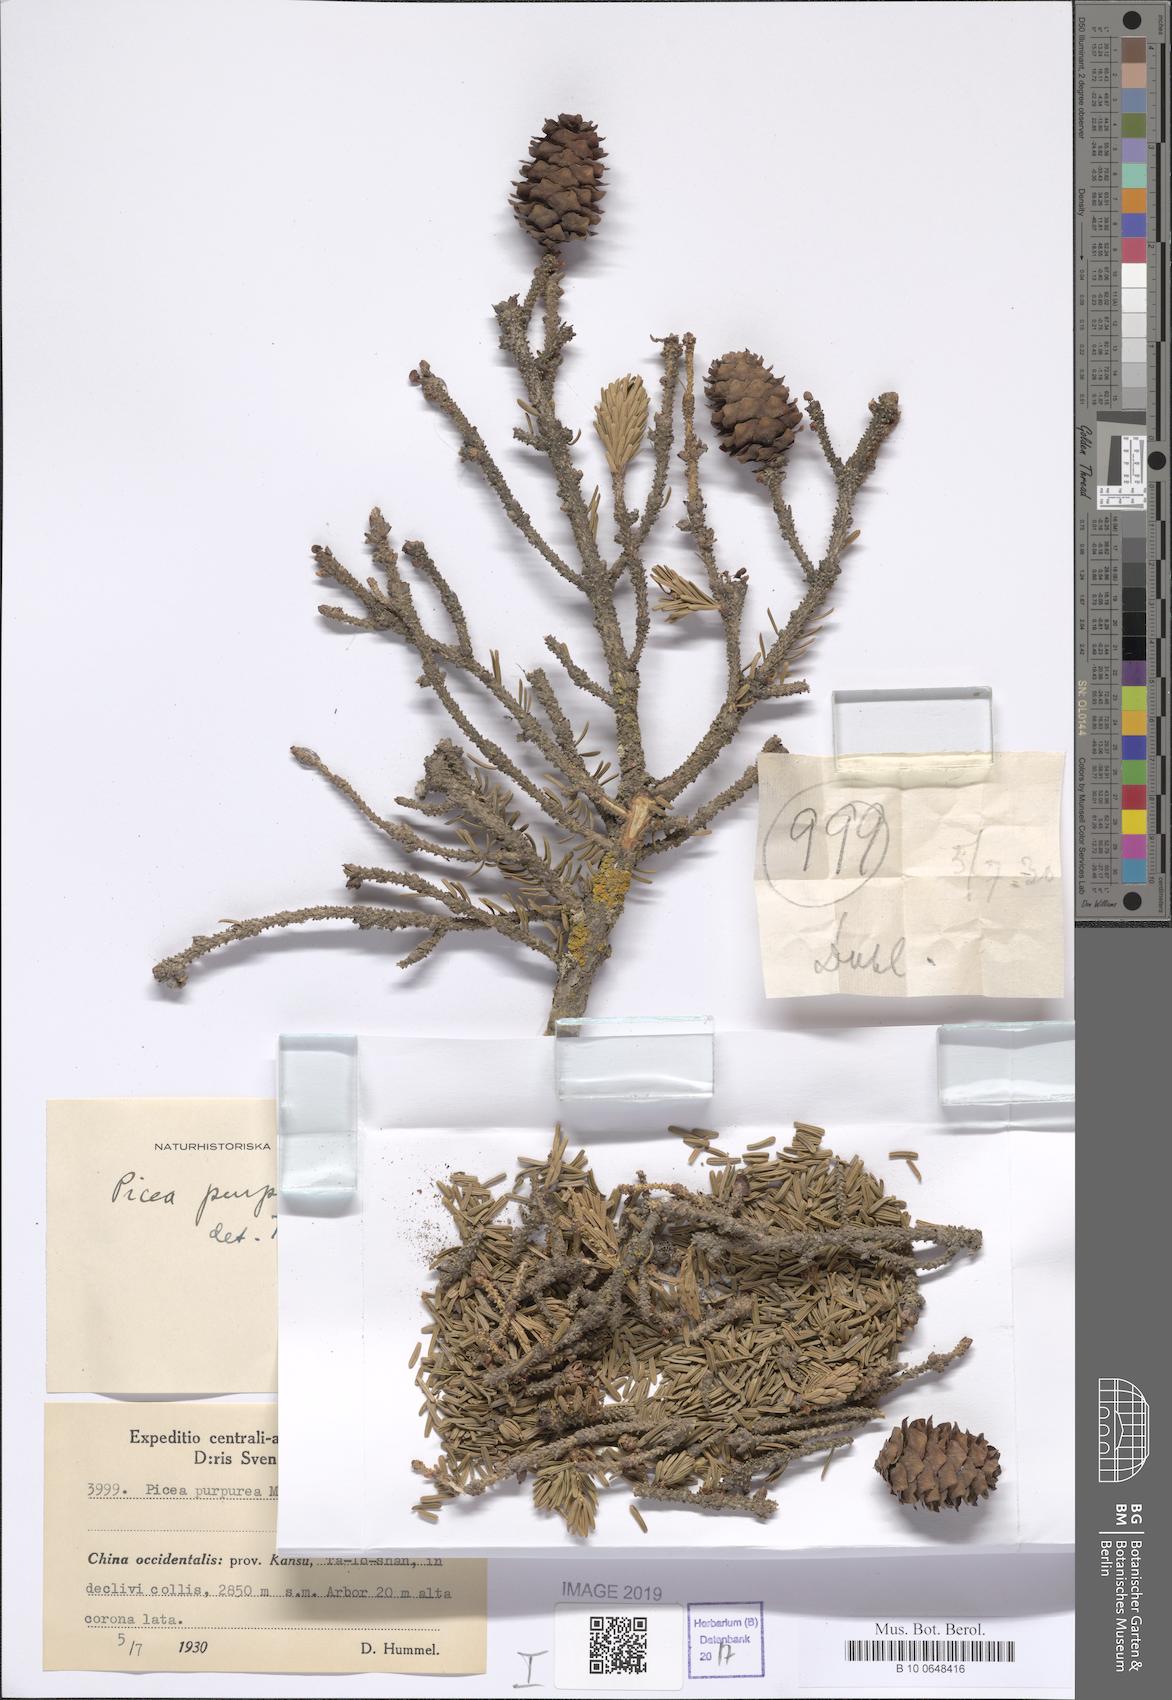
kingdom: Plantae
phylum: Tracheophyta
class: Pinopsida
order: Pinales
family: Pinaceae
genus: Picea
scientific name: Picea purpurea
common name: Purple cone spruce
